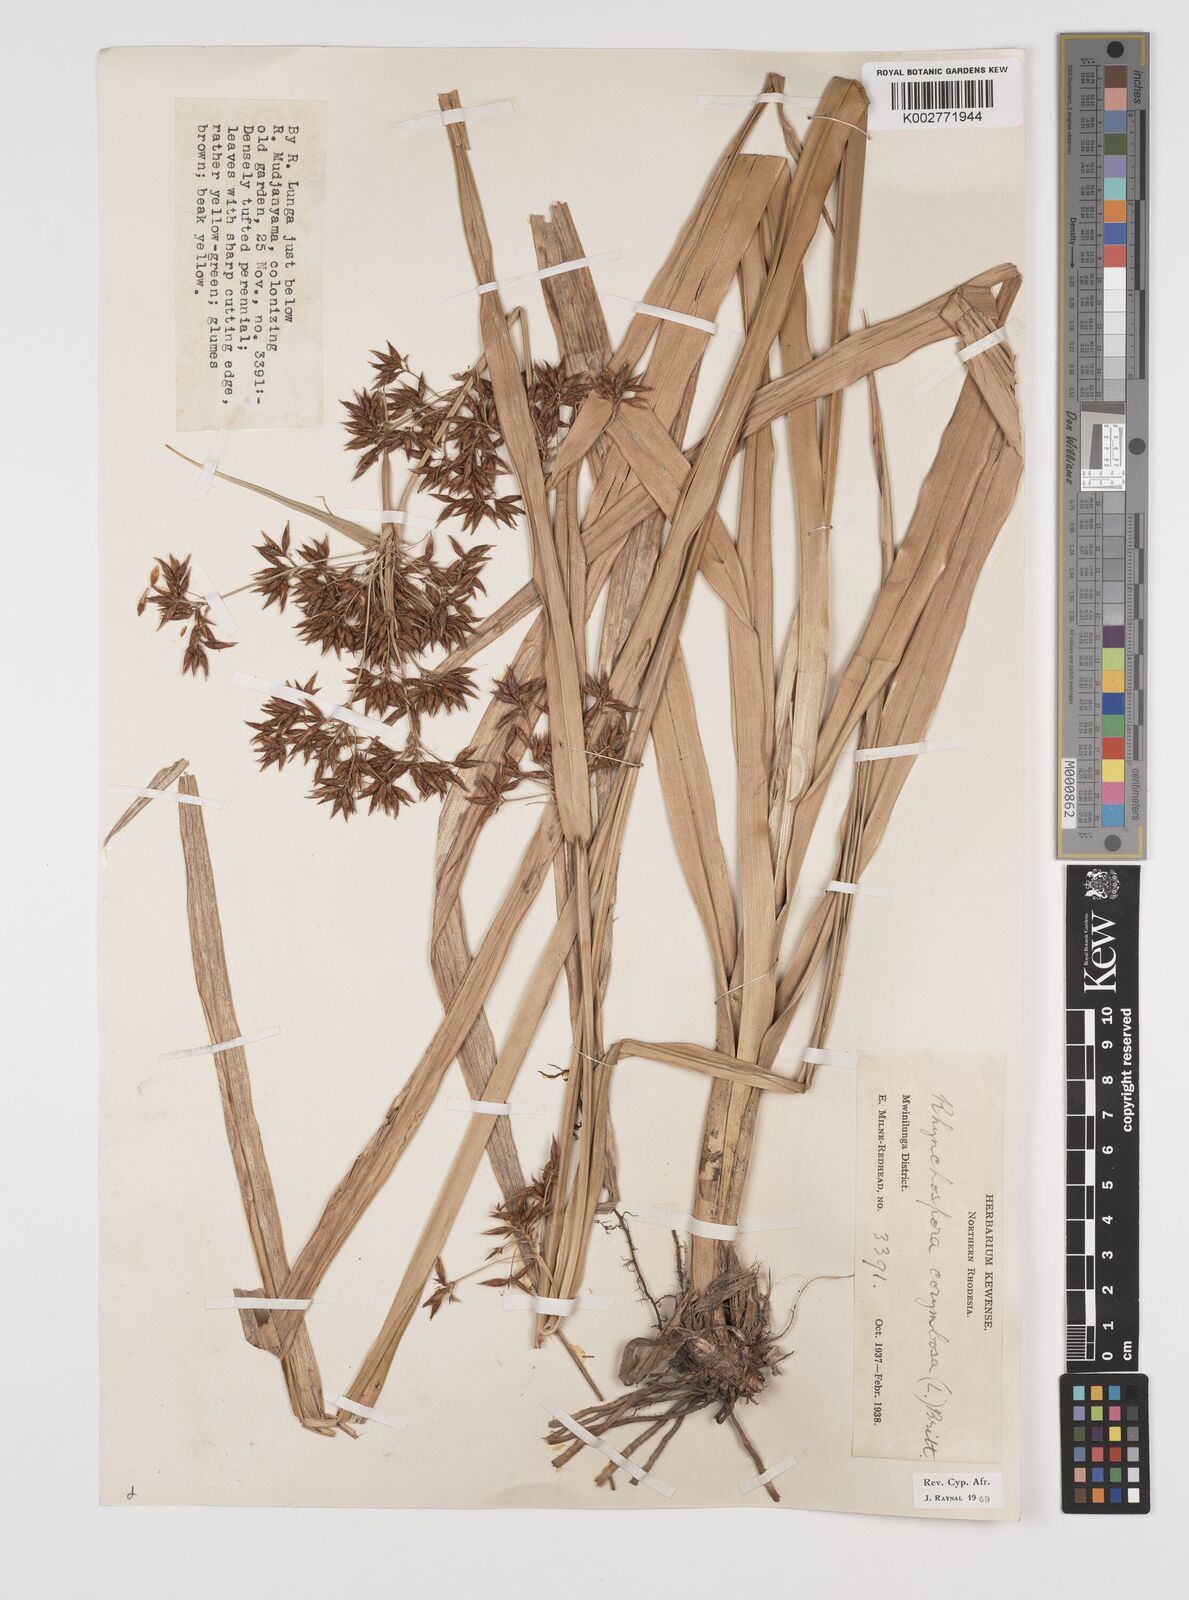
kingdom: Plantae
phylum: Tracheophyta
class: Liliopsida
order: Poales
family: Cyperaceae
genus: Rhynchospora
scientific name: Rhynchospora corymbosa
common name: Golden beak sedge
